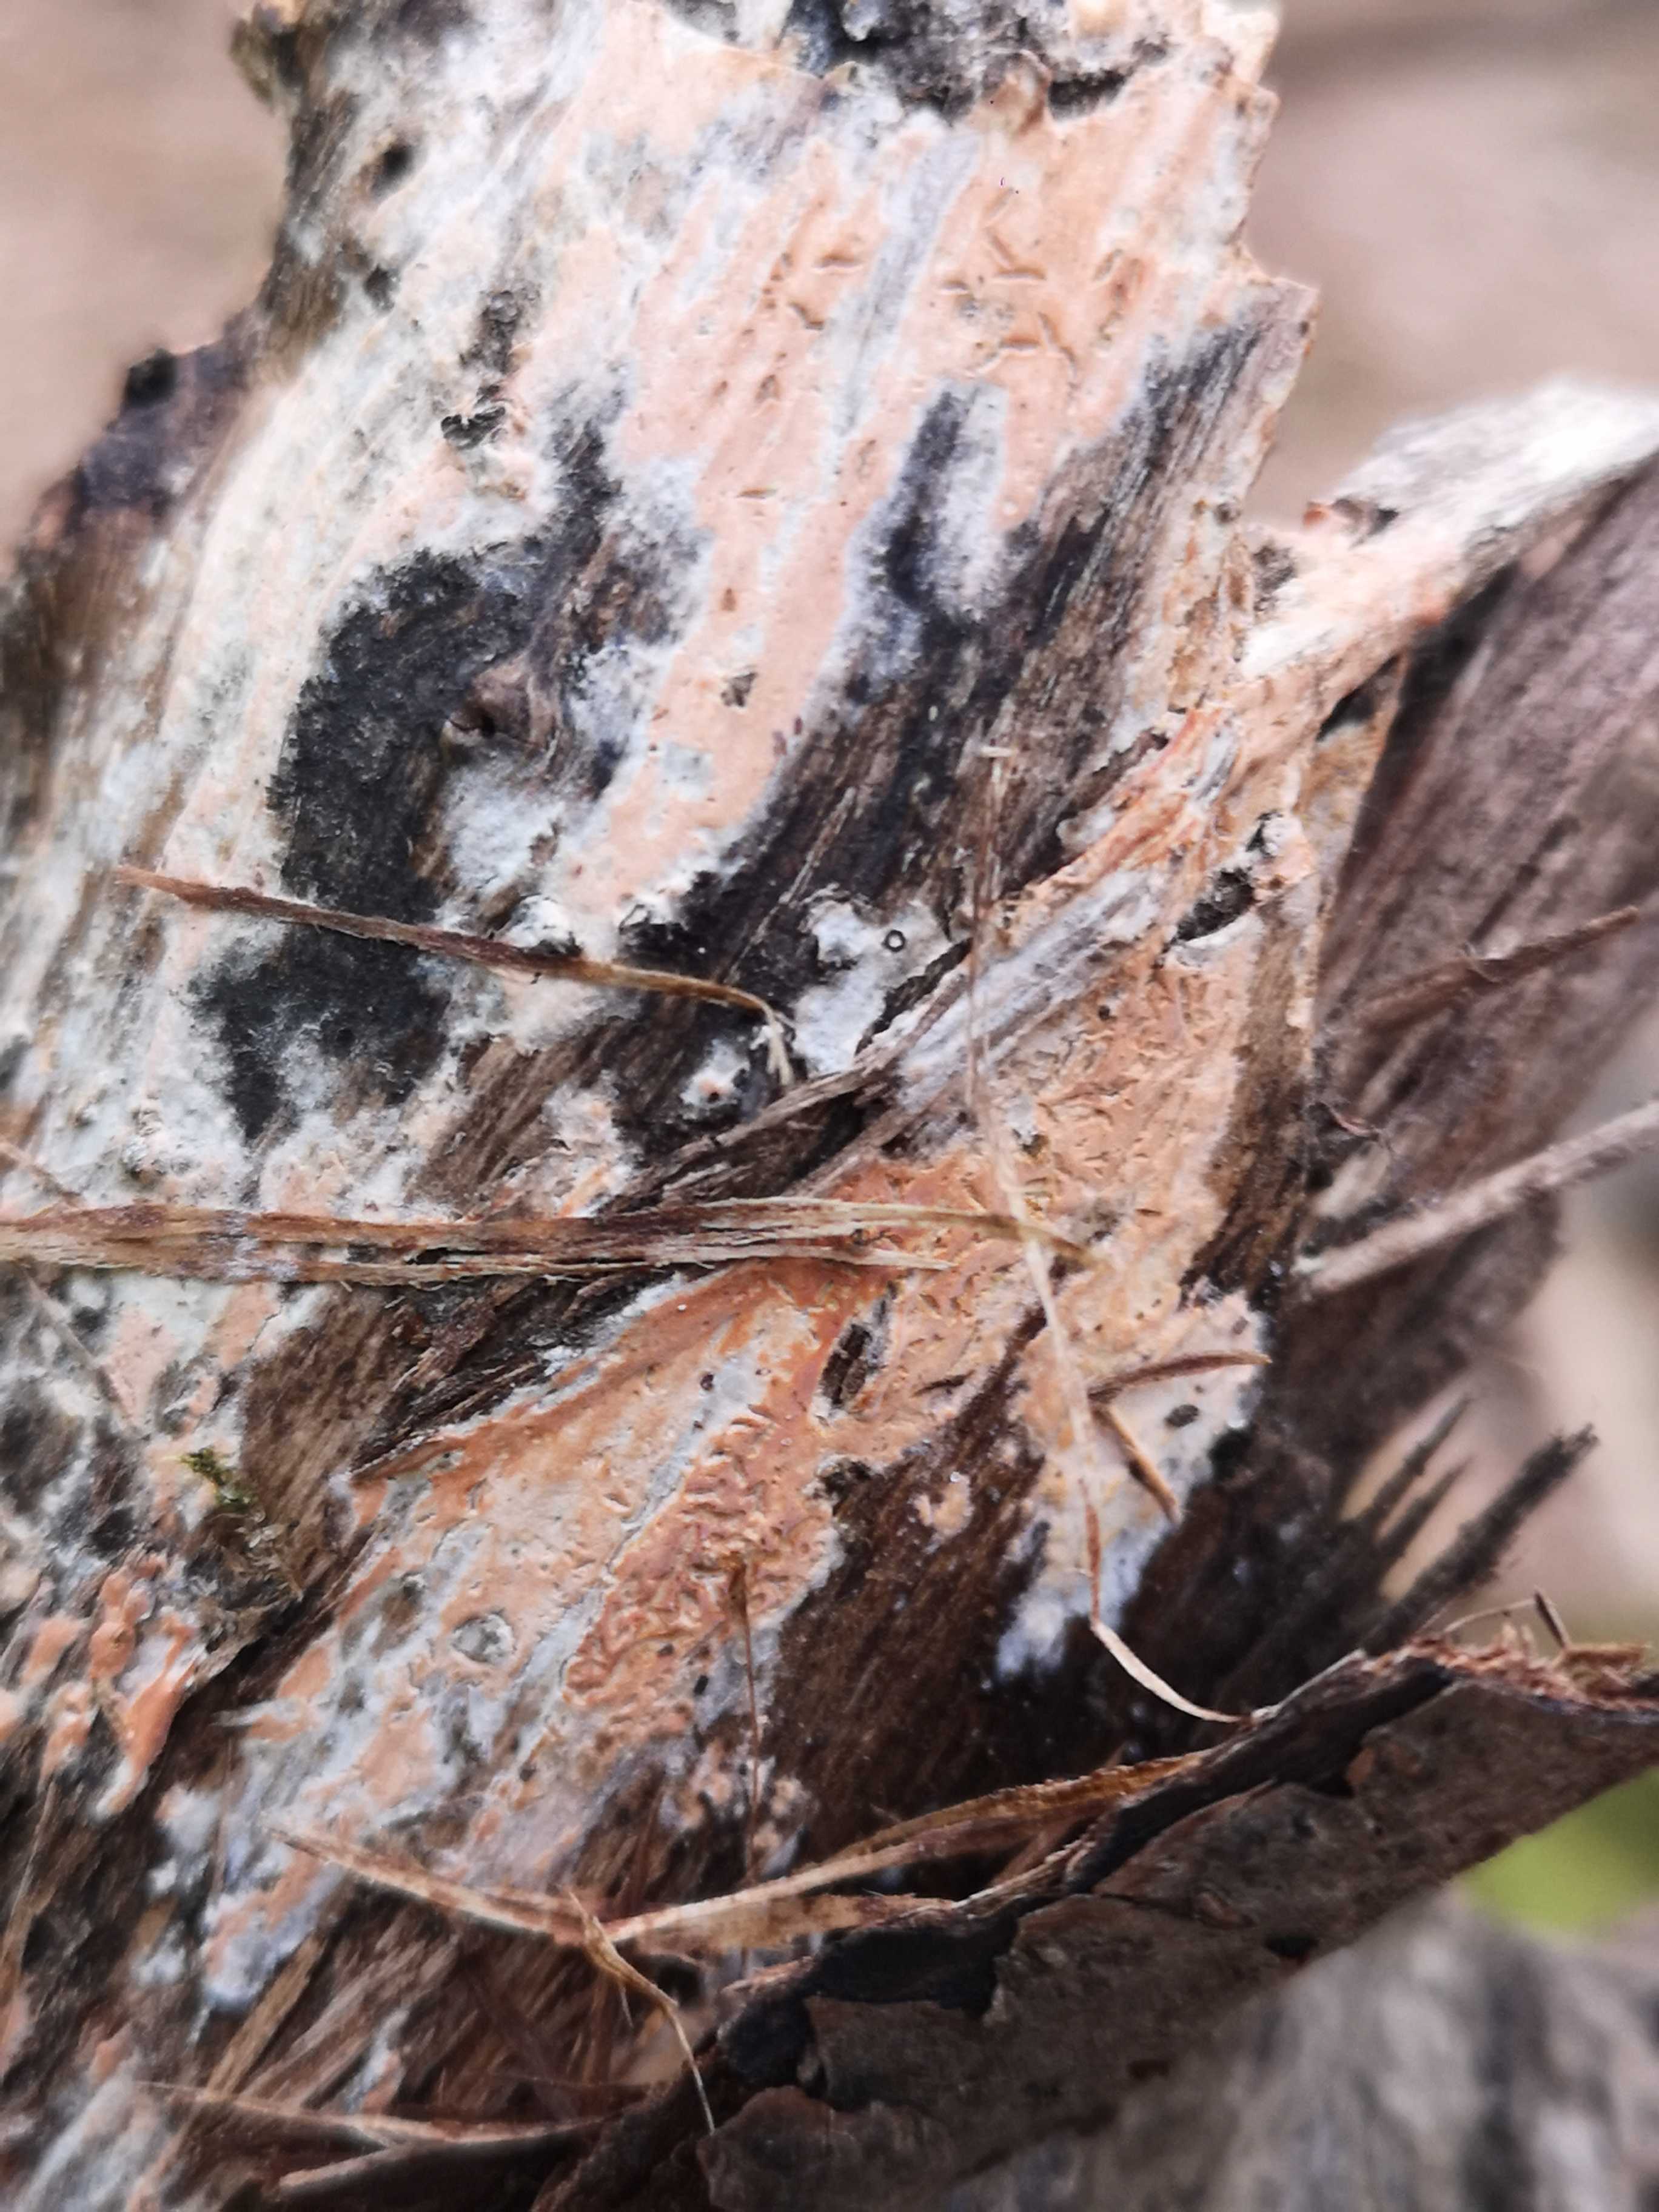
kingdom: Fungi
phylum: Basidiomycota
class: Agaricomycetes
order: Russulales
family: Peniophoraceae
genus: Peniophora
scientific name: Peniophora incarnata
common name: laksefarvet voksskind
